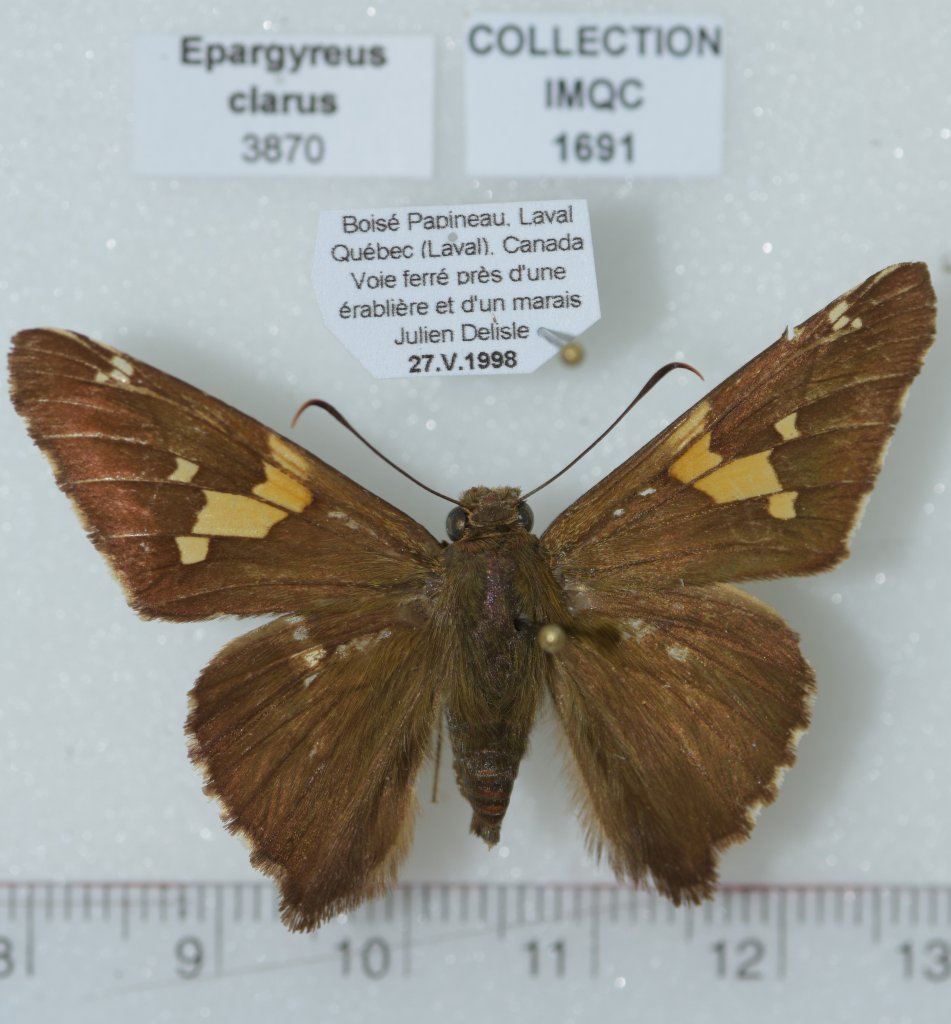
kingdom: Animalia
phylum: Arthropoda
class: Insecta
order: Lepidoptera
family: Hesperiidae
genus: Epargyreus
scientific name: Epargyreus clarus
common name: Silver-spotted Skipper
